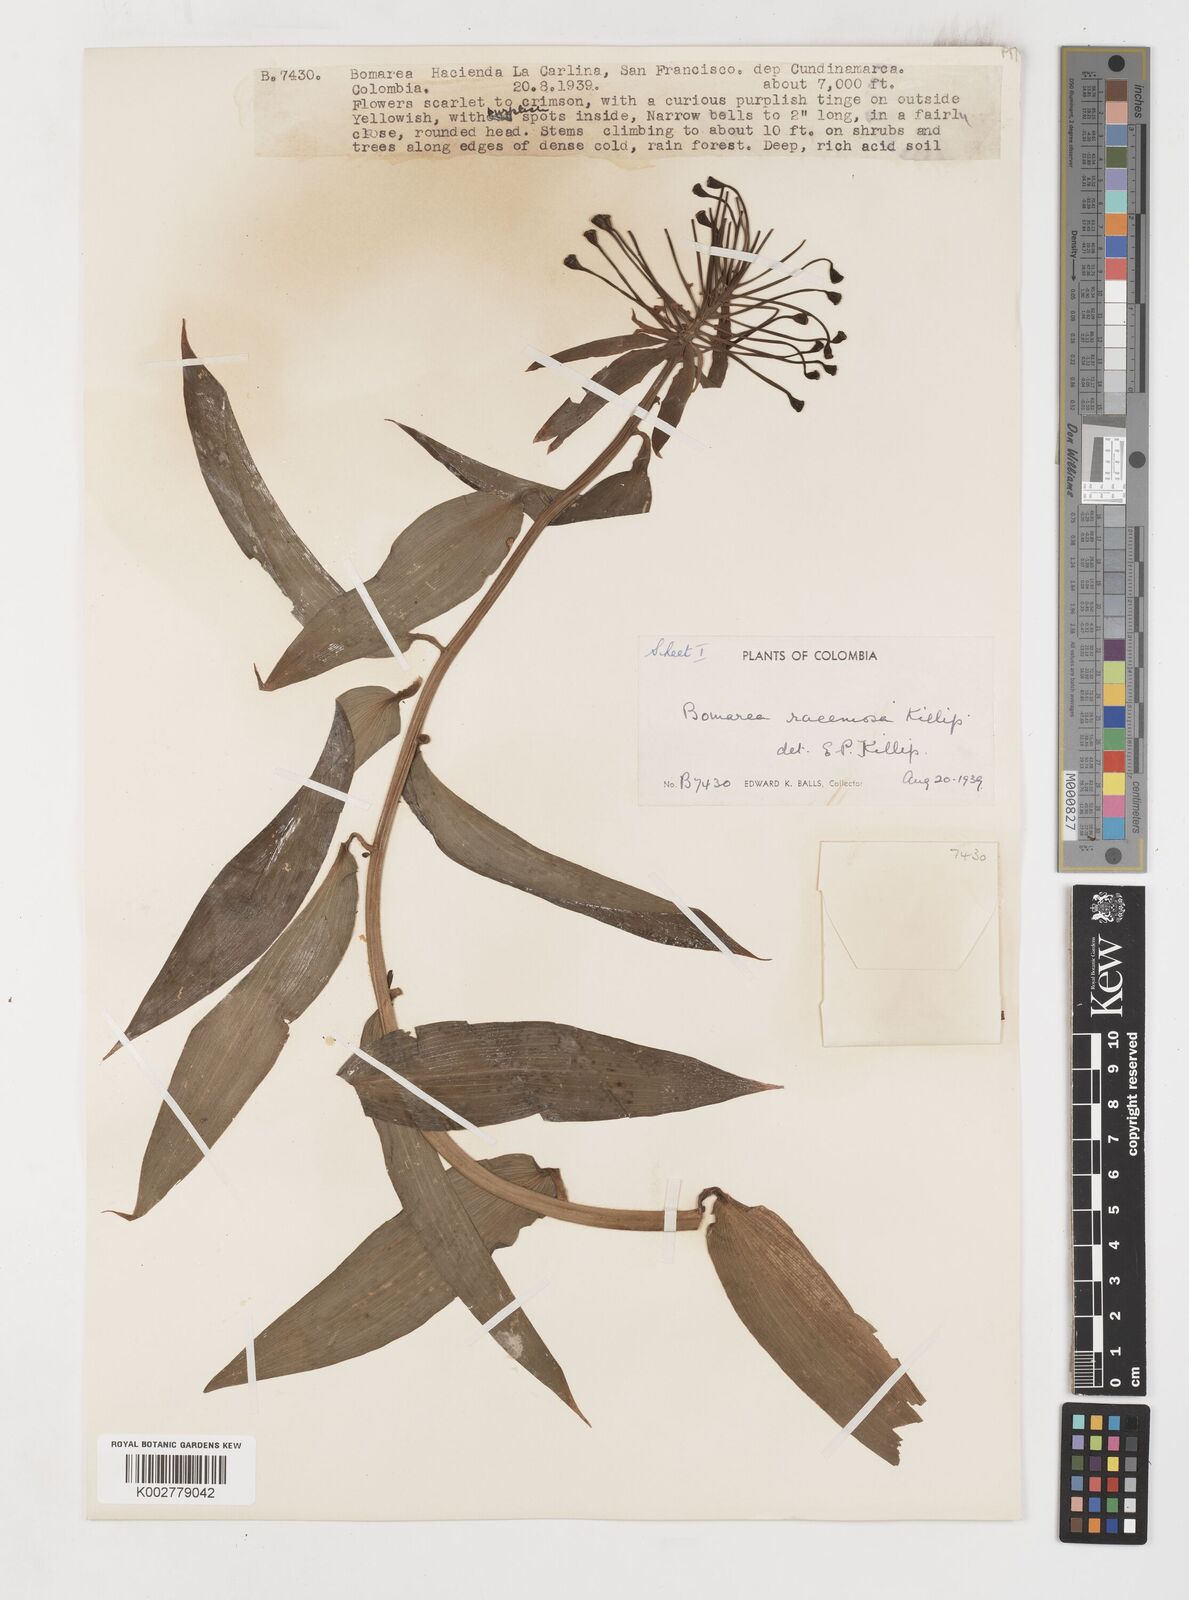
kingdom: Plantae
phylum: Tracheophyta
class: Liliopsida
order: Liliales
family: Alstroemeriaceae
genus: Bomarea
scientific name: Bomarea patinii
